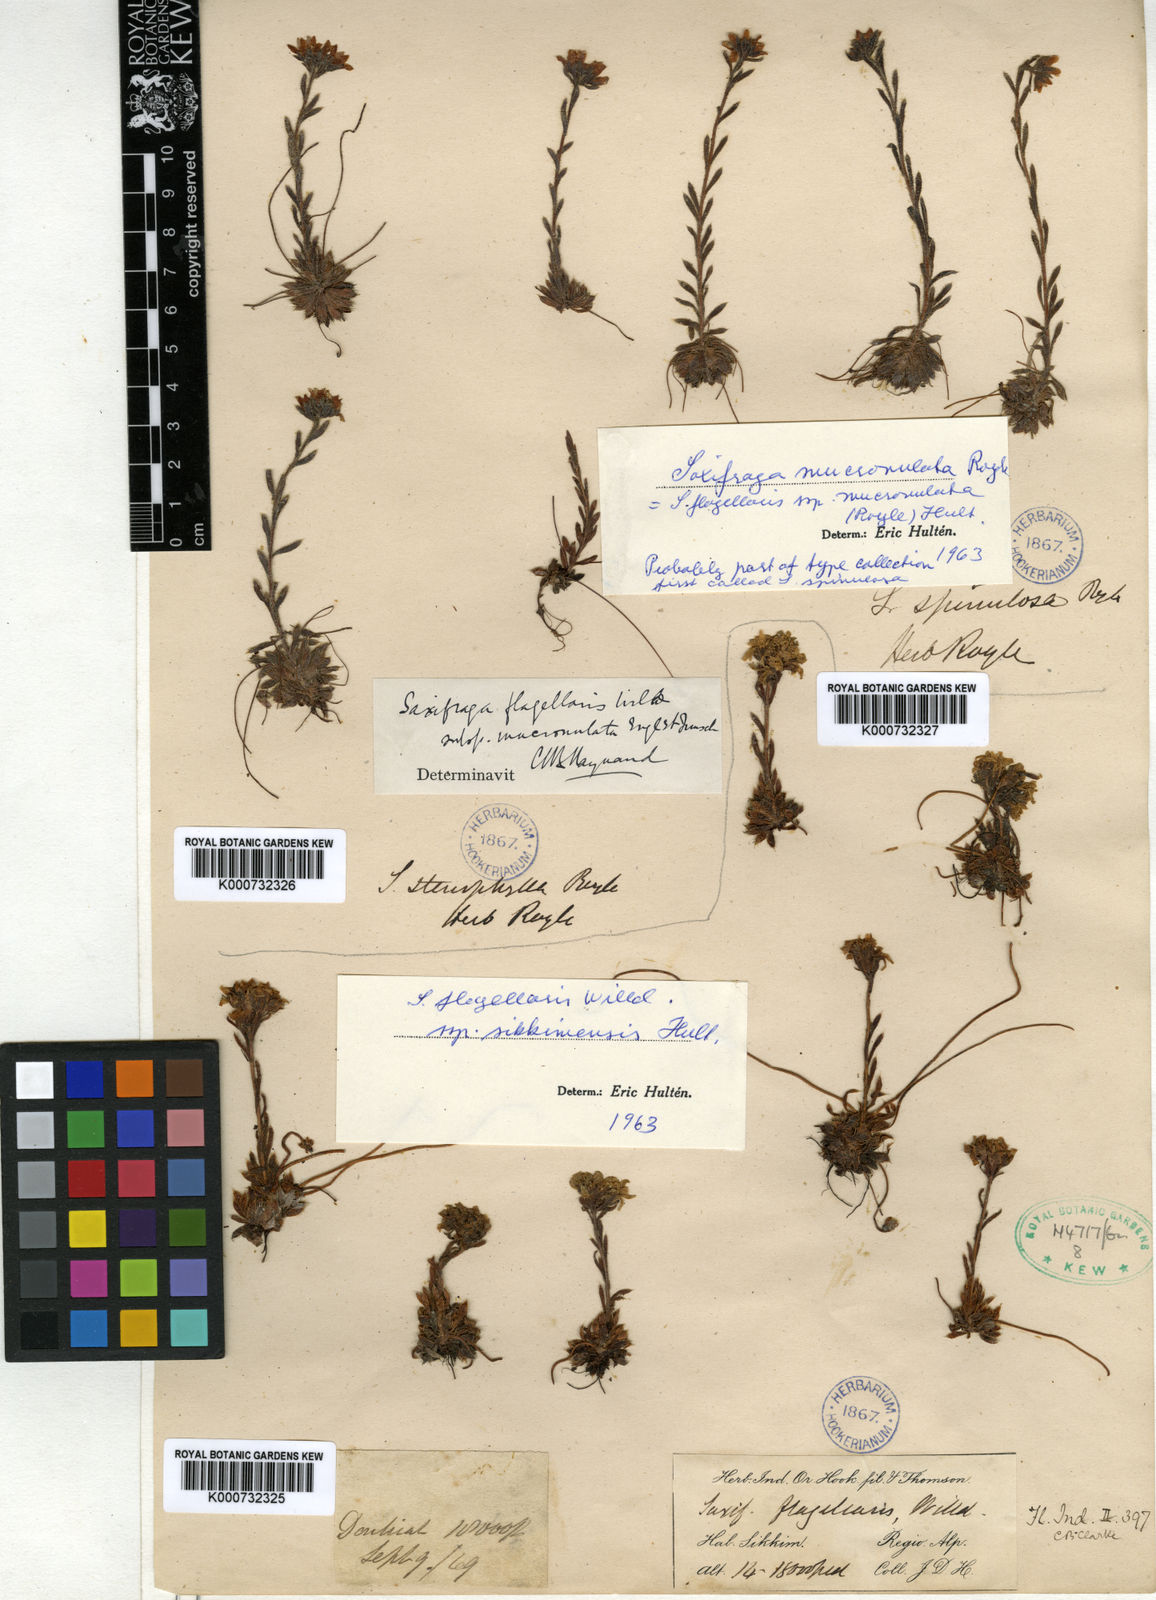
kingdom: Plantae
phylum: Tracheophyta
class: Magnoliopsida
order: Saxifragales
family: Saxifragaceae
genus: Saxifraga
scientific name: Saxifraga flagellaris
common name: Spider saxifrage
